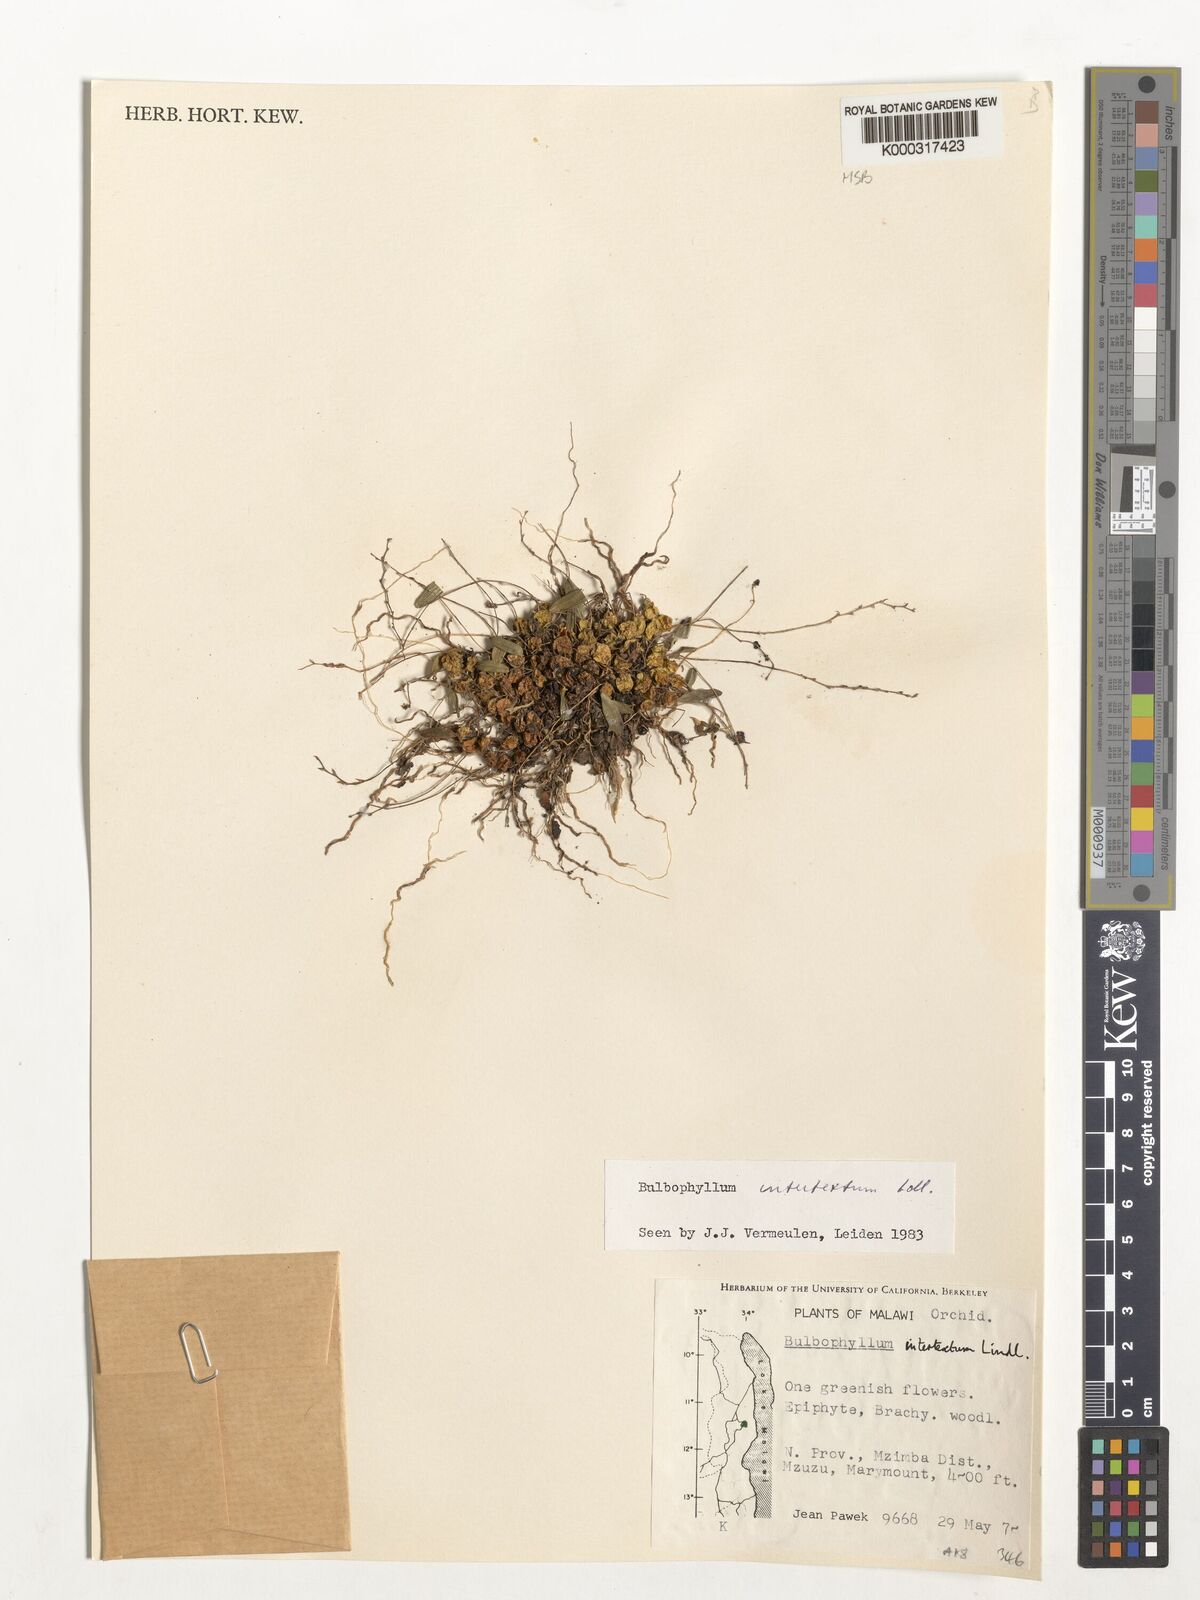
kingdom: Plantae
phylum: Tracheophyta
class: Liliopsida
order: Asparagales
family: Orchidaceae
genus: Bulbophyllum
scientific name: Bulbophyllum intertextum
